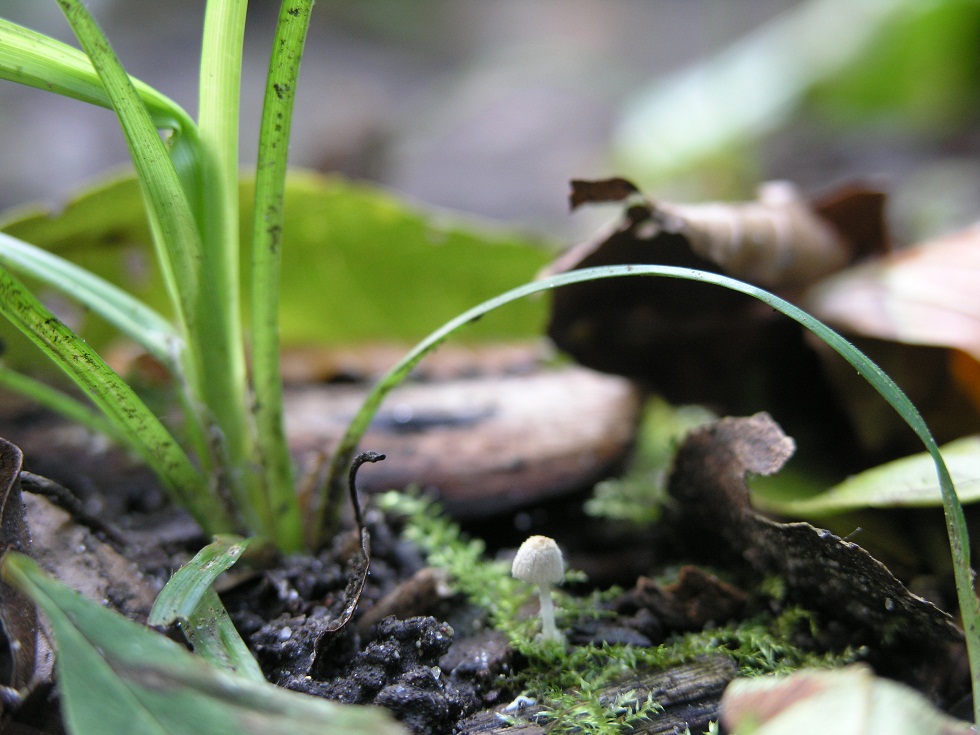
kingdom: Fungi
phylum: Basidiomycota
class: Agaricomycetes
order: Agaricales
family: Psathyrellaceae
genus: Coprinopsis
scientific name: Coprinopsis cortinata
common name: slør-blækhat
